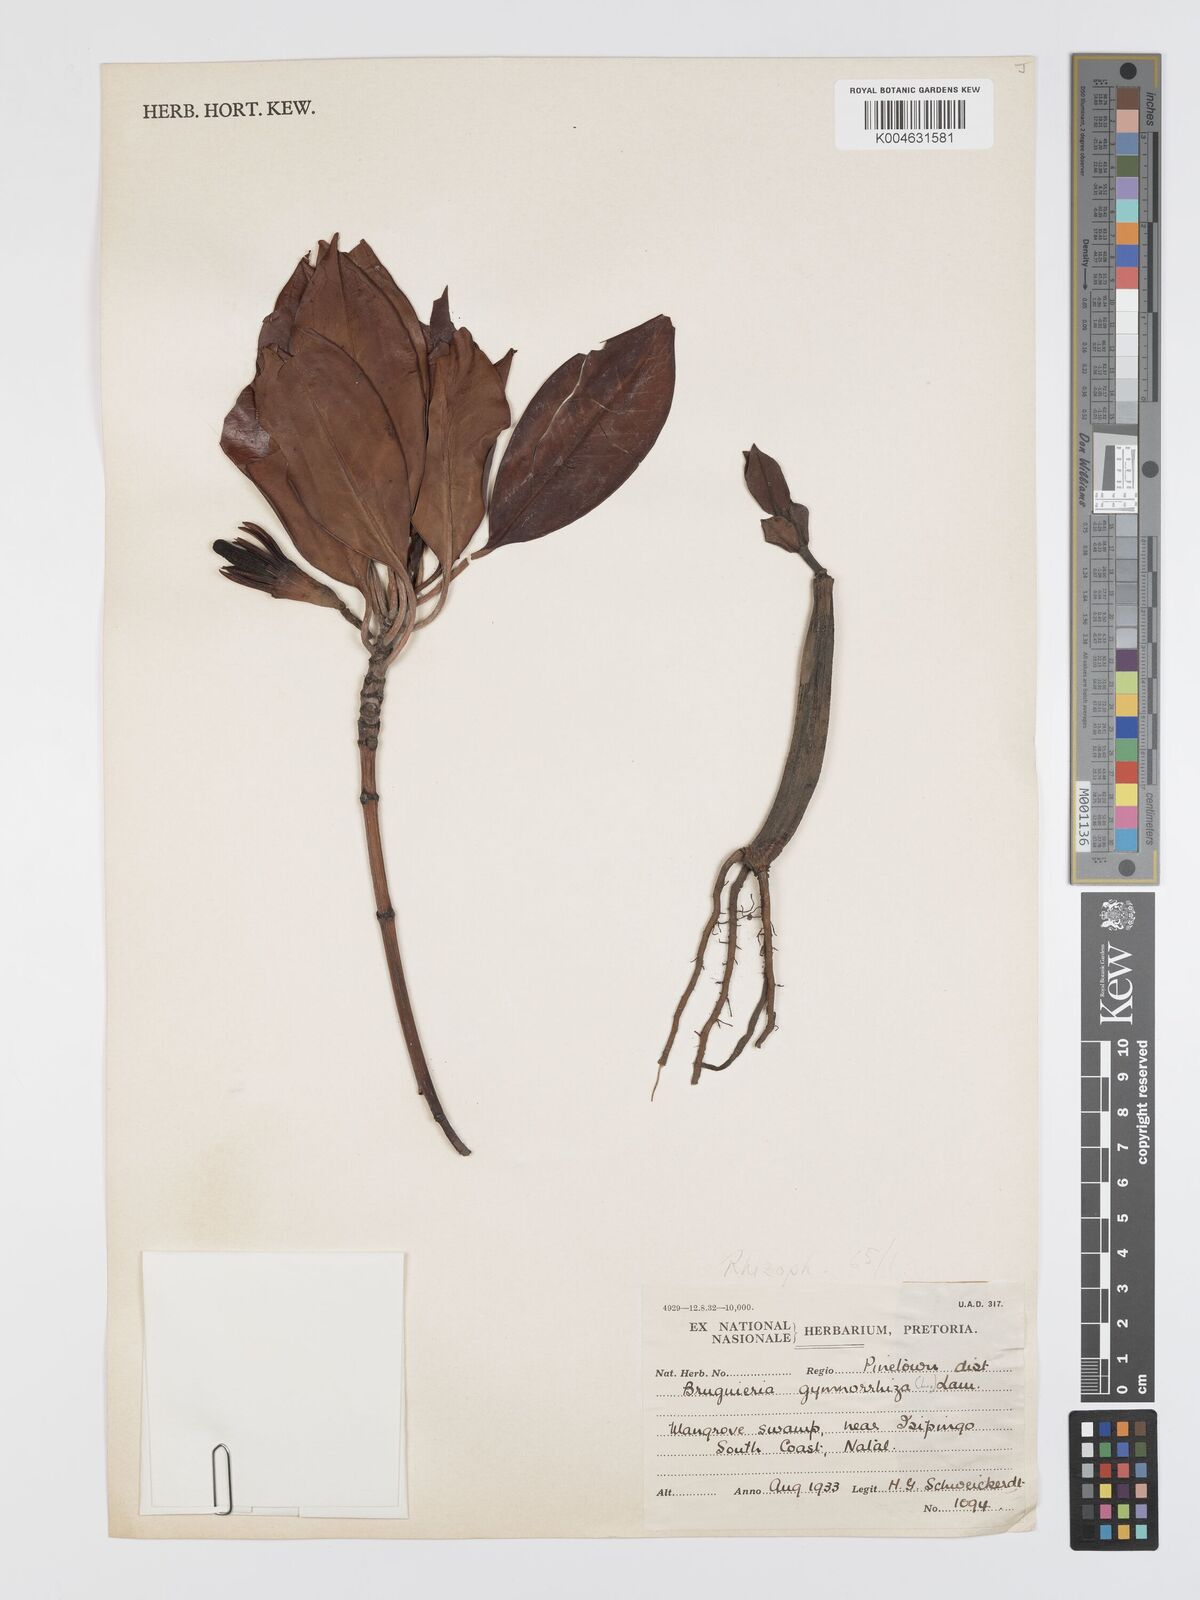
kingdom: Plantae
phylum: Tracheophyta
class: Magnoliopsida
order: Malpighiales
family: Rhizophoraceae
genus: Bruguiera
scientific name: Bruguiera
